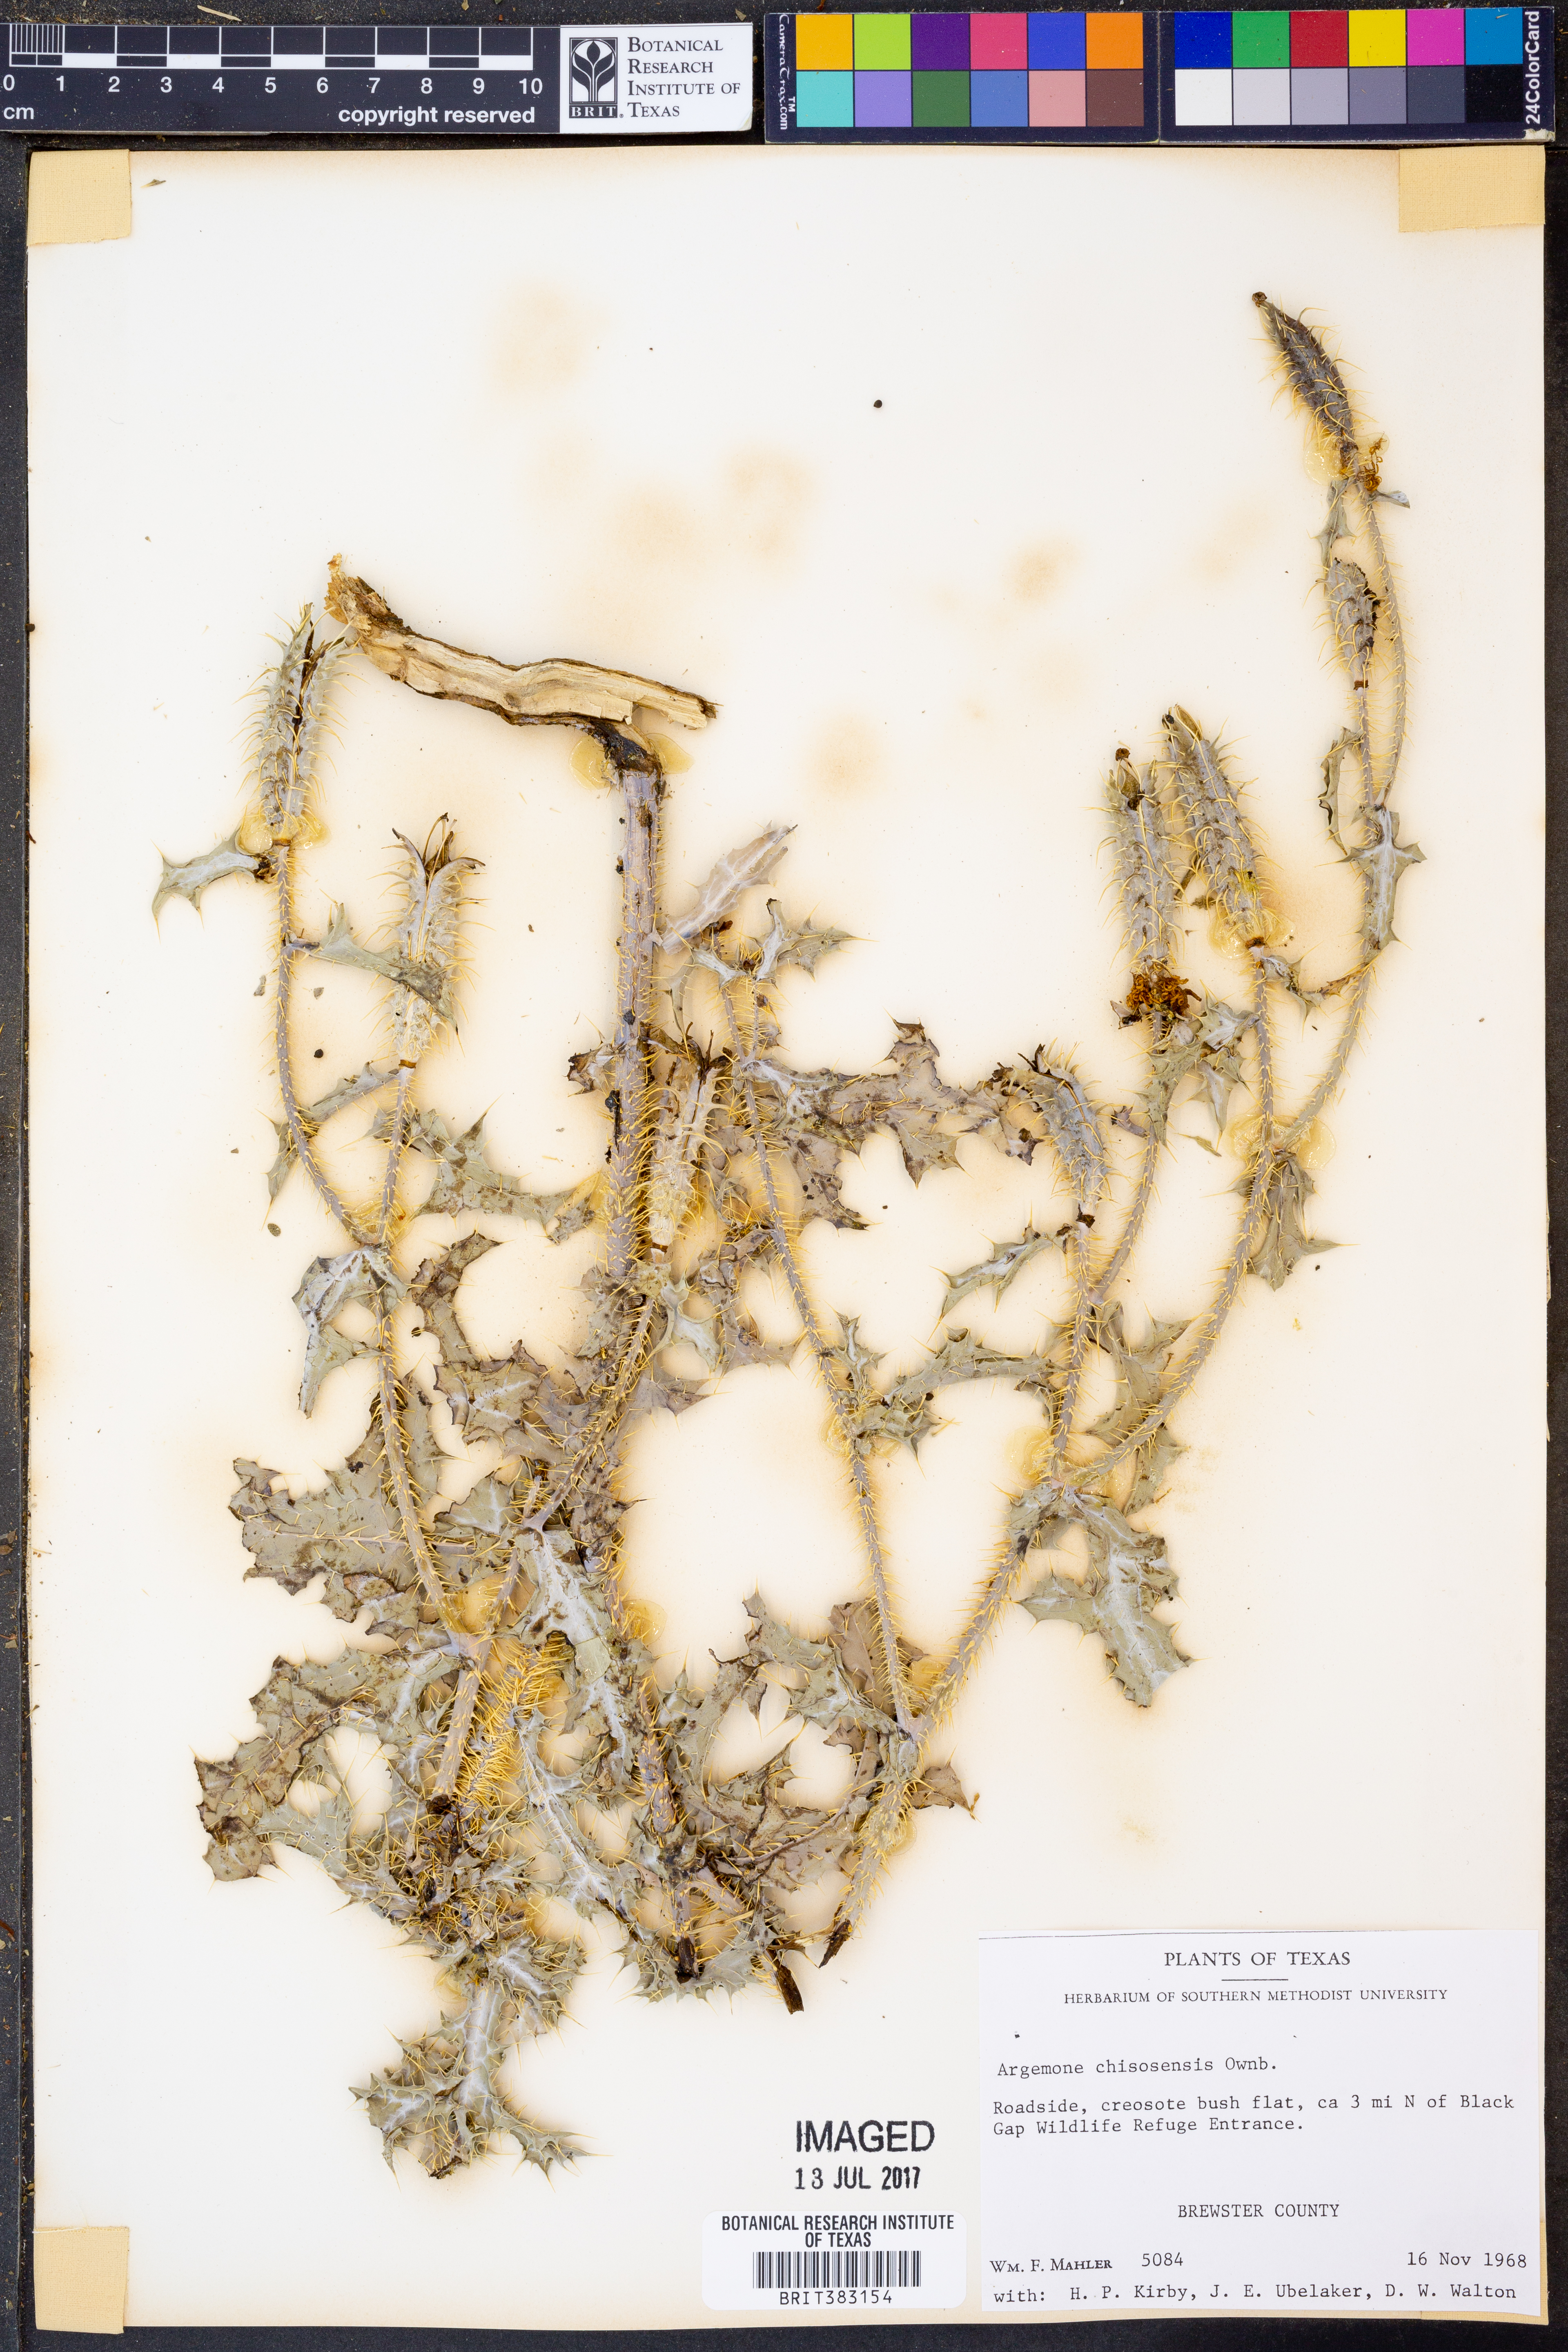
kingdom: Plantae
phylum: Tracheophyta
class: Magnoliopsida
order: Ranunculales
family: Papaveraceae
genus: Argemone
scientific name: Argemone chisosensis
